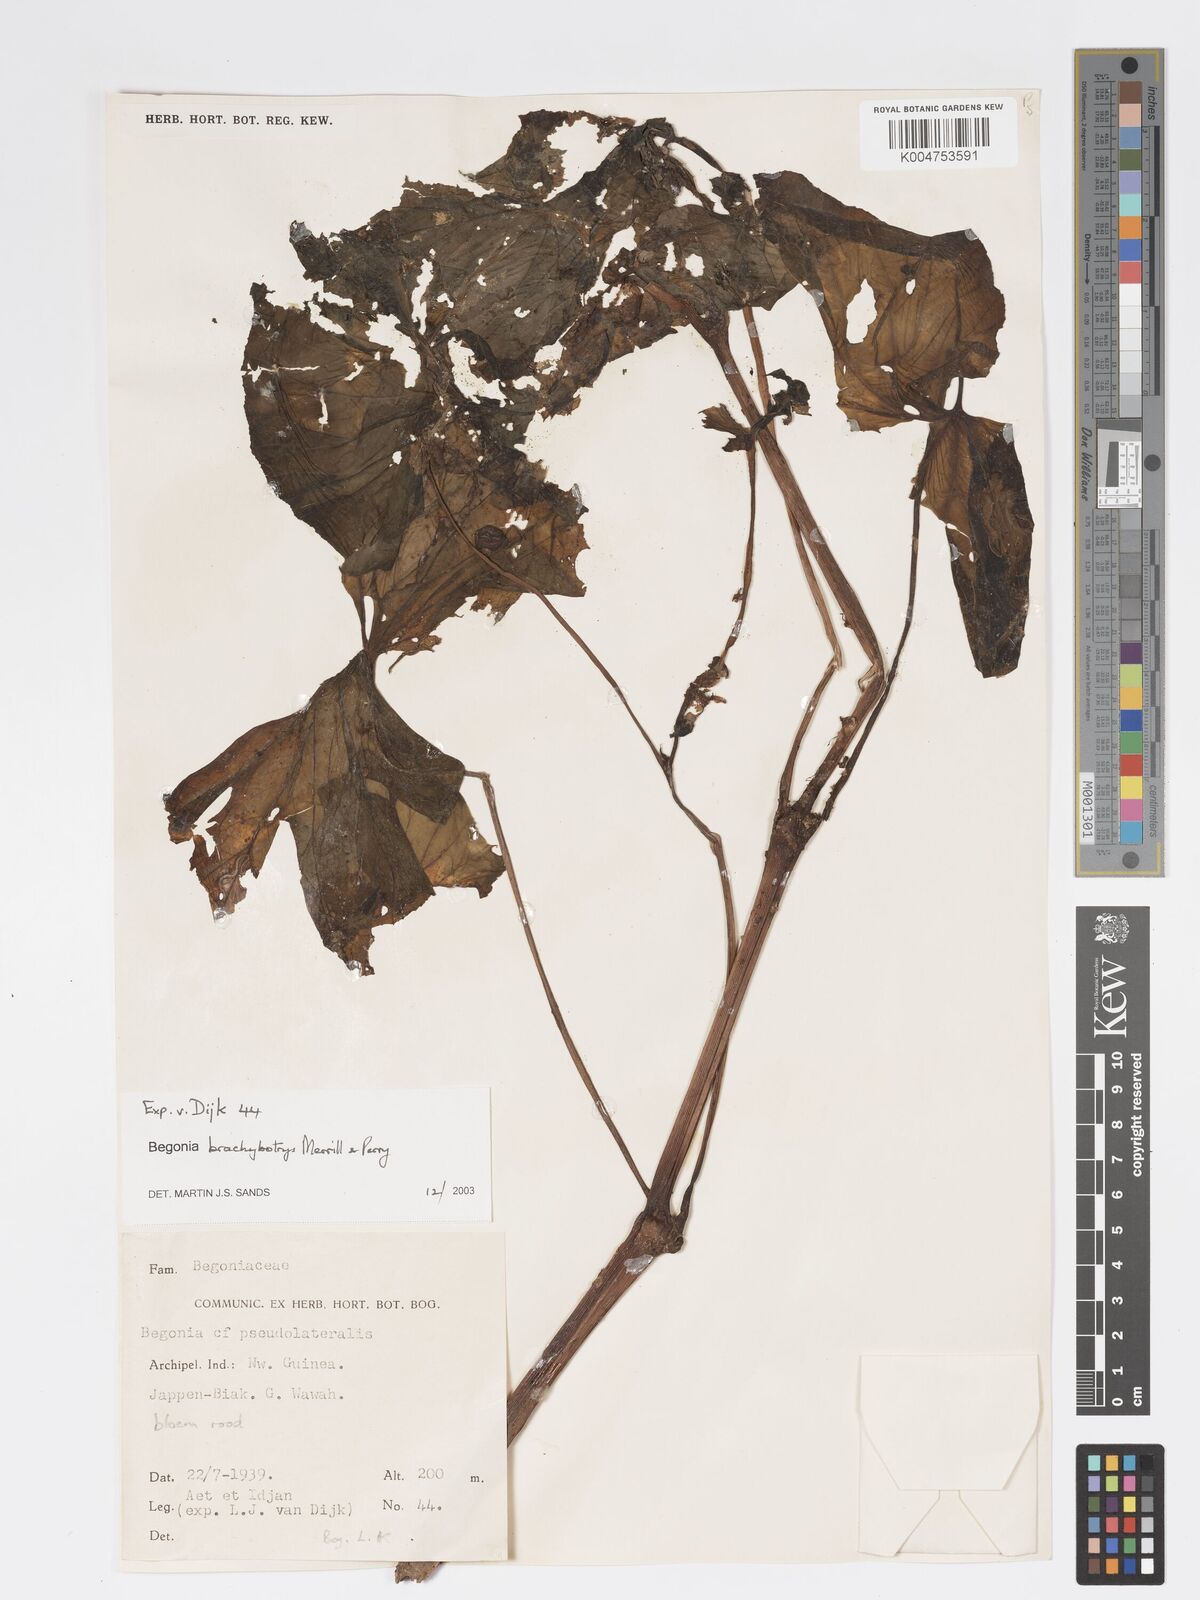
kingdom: Plantae
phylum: Tracheophyta
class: Magnoliopsida
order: Cucurbitales
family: Begoniaceae
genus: Begonia
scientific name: Begonia brachybotrys
